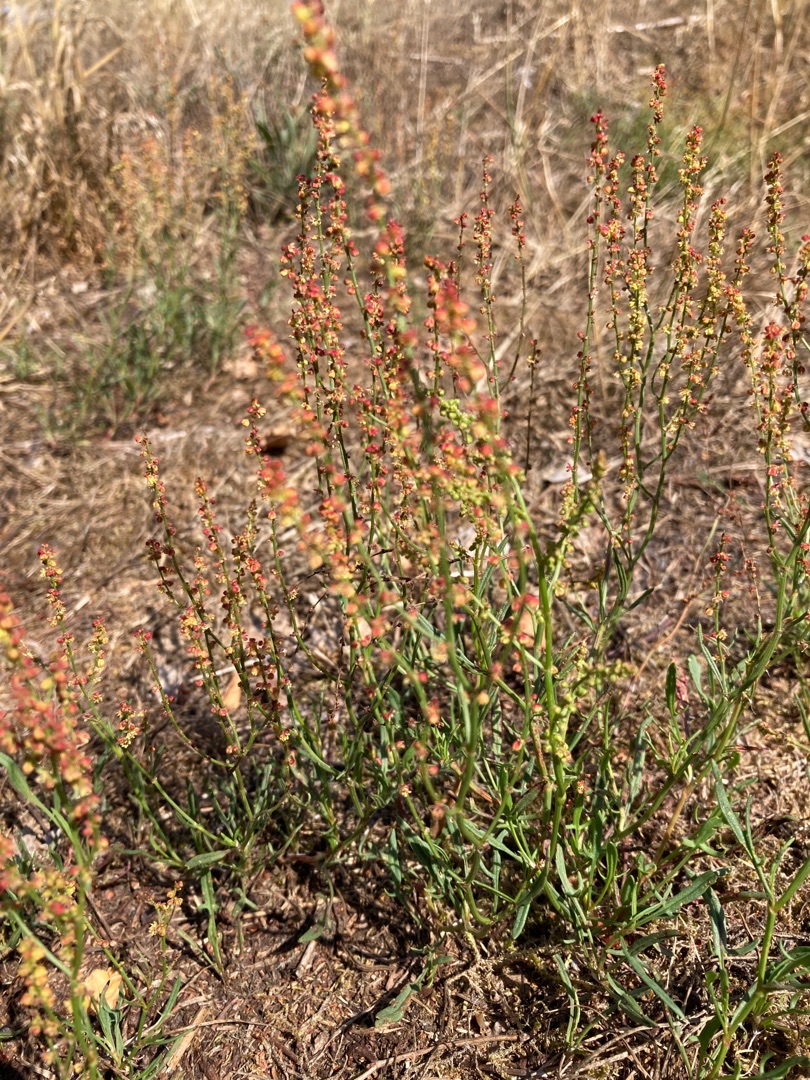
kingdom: Plantae
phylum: Tracheophyta
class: Magnoliopsida
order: Caryophyllales
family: Polygonaceae
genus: Rumex
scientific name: Rumex acetosella
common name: Rødknæ
